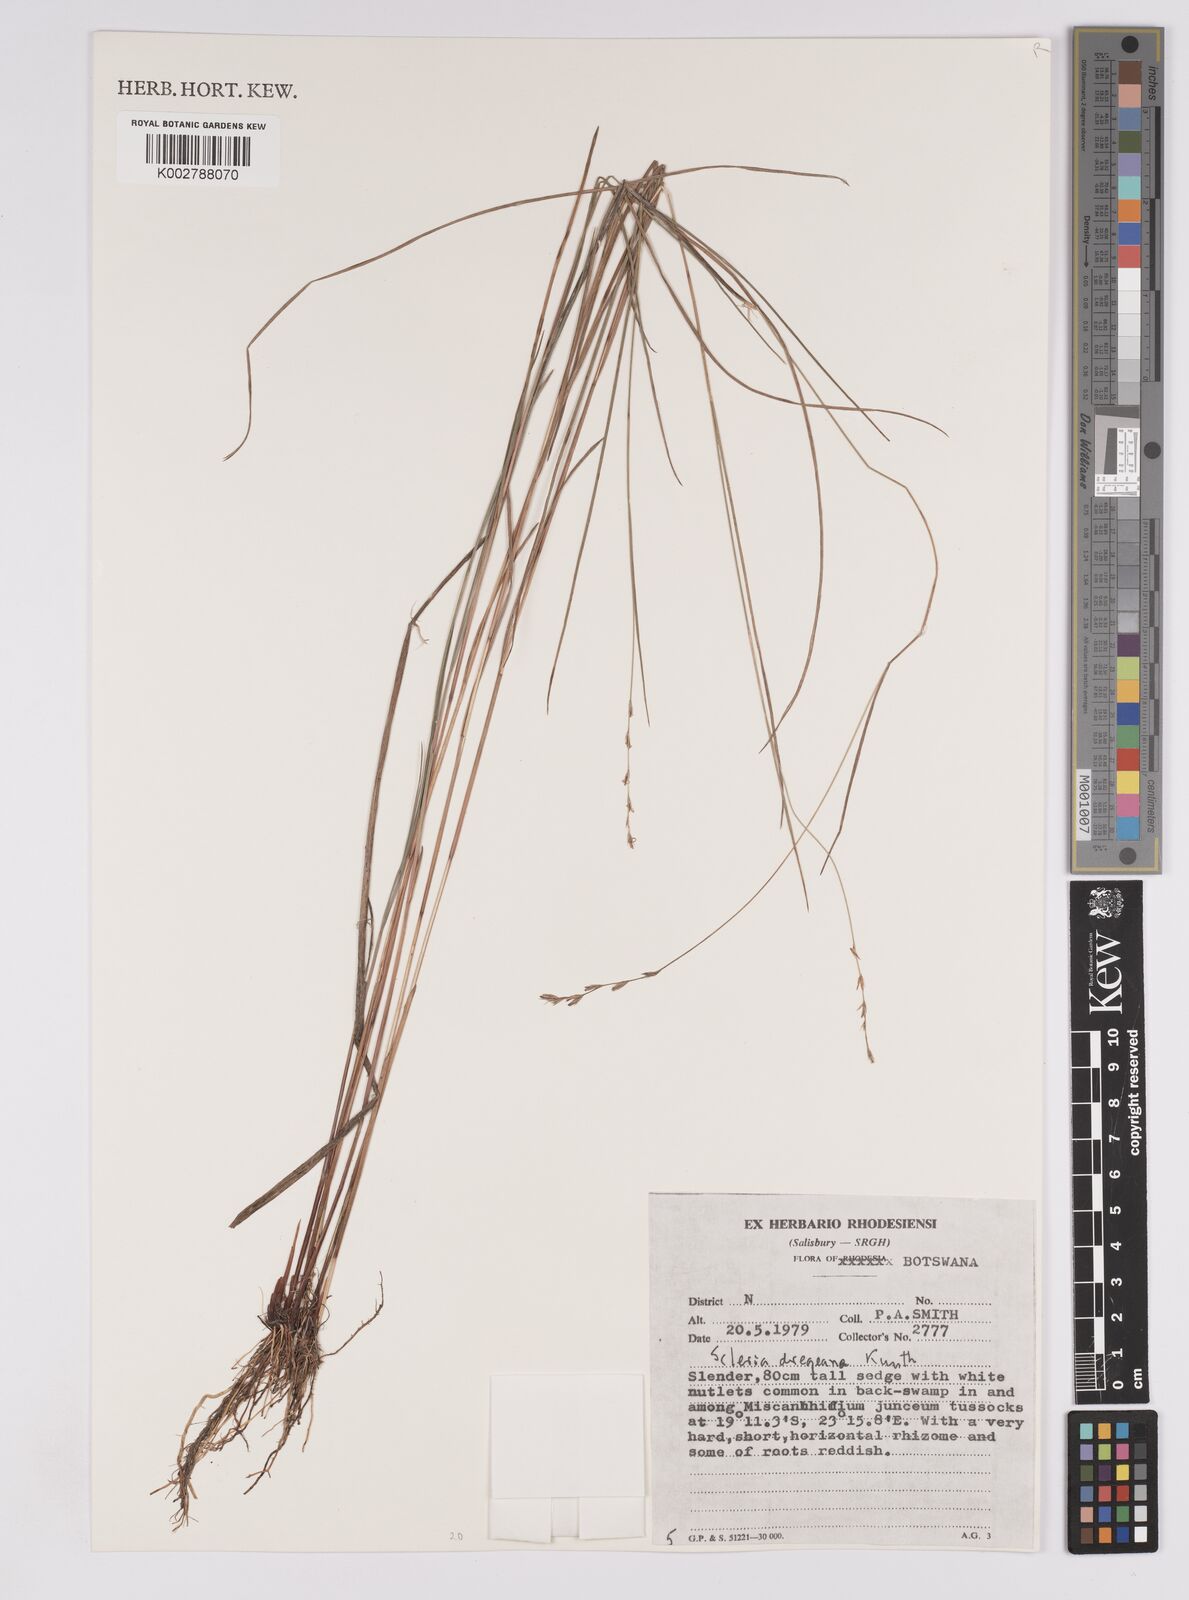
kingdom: Plantae
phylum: Tracheophyta
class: Liliopsida
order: Poales
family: Cyperaceae
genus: Scleria
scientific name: Scleria dregeana
